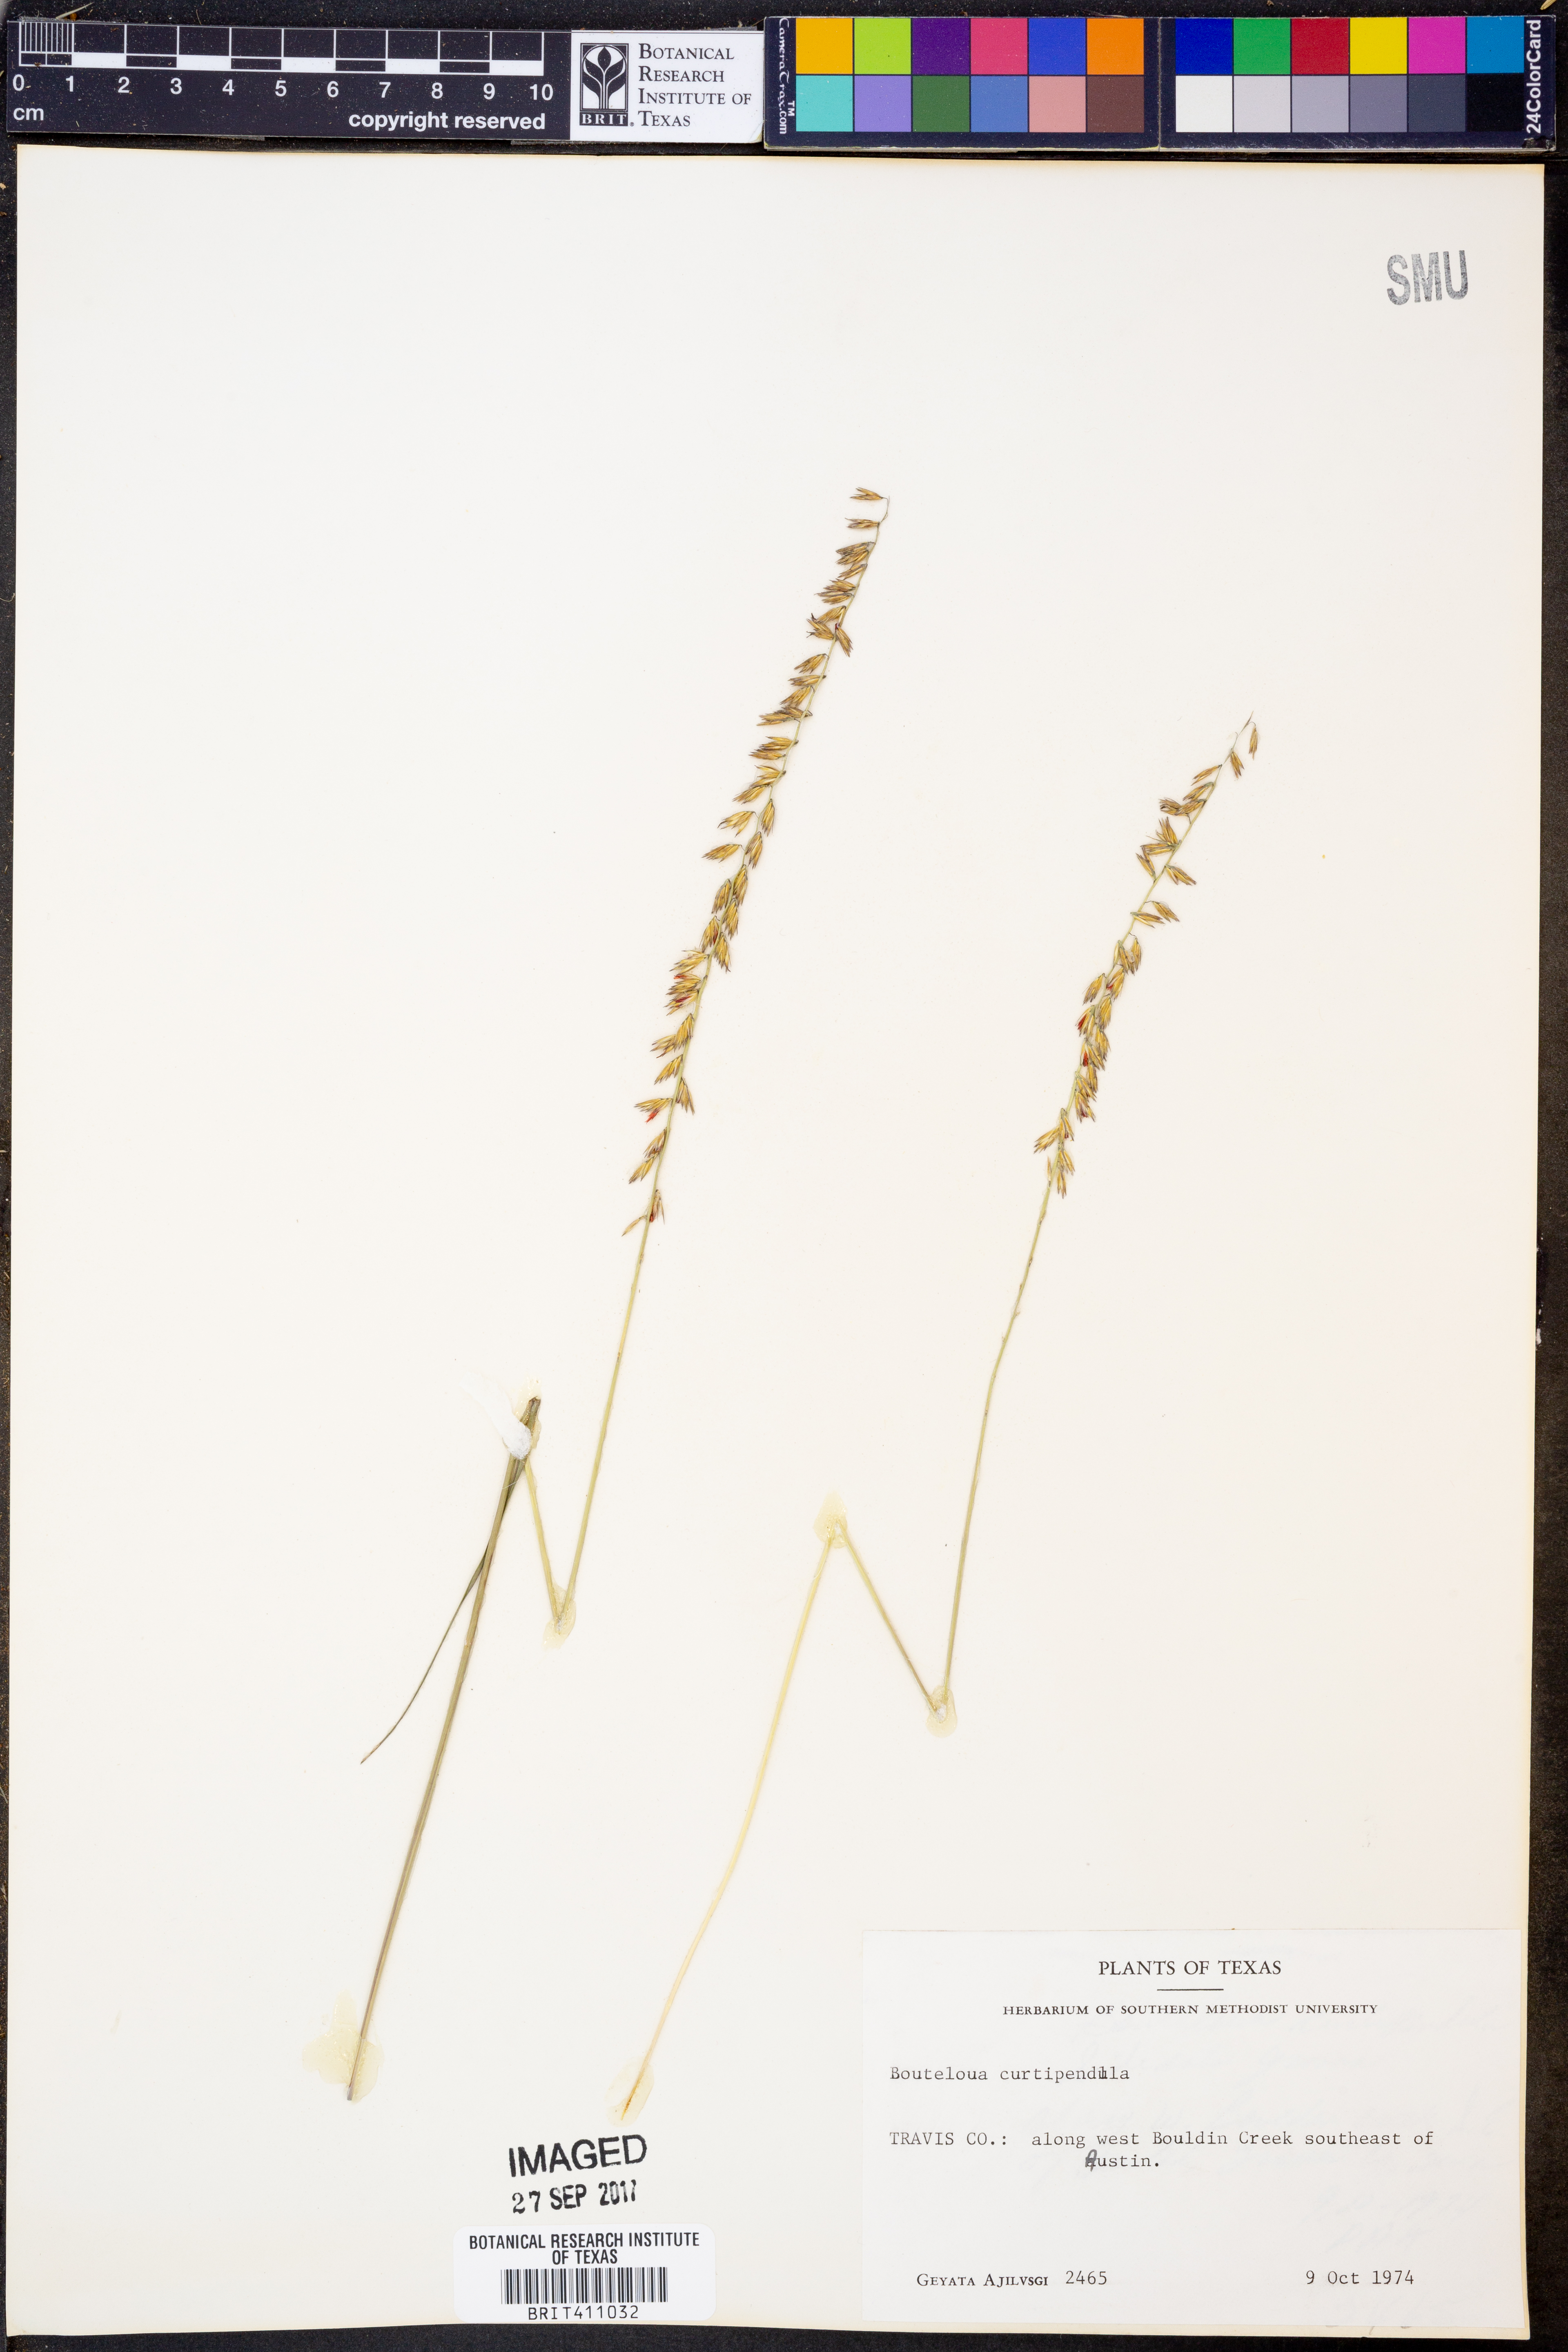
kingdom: Plantae
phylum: Tracheophyta
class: Liliopsida
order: Poales
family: Poaceae
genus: Bouteloua
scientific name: Bouteloua curtipendula
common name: Side-oats grama
